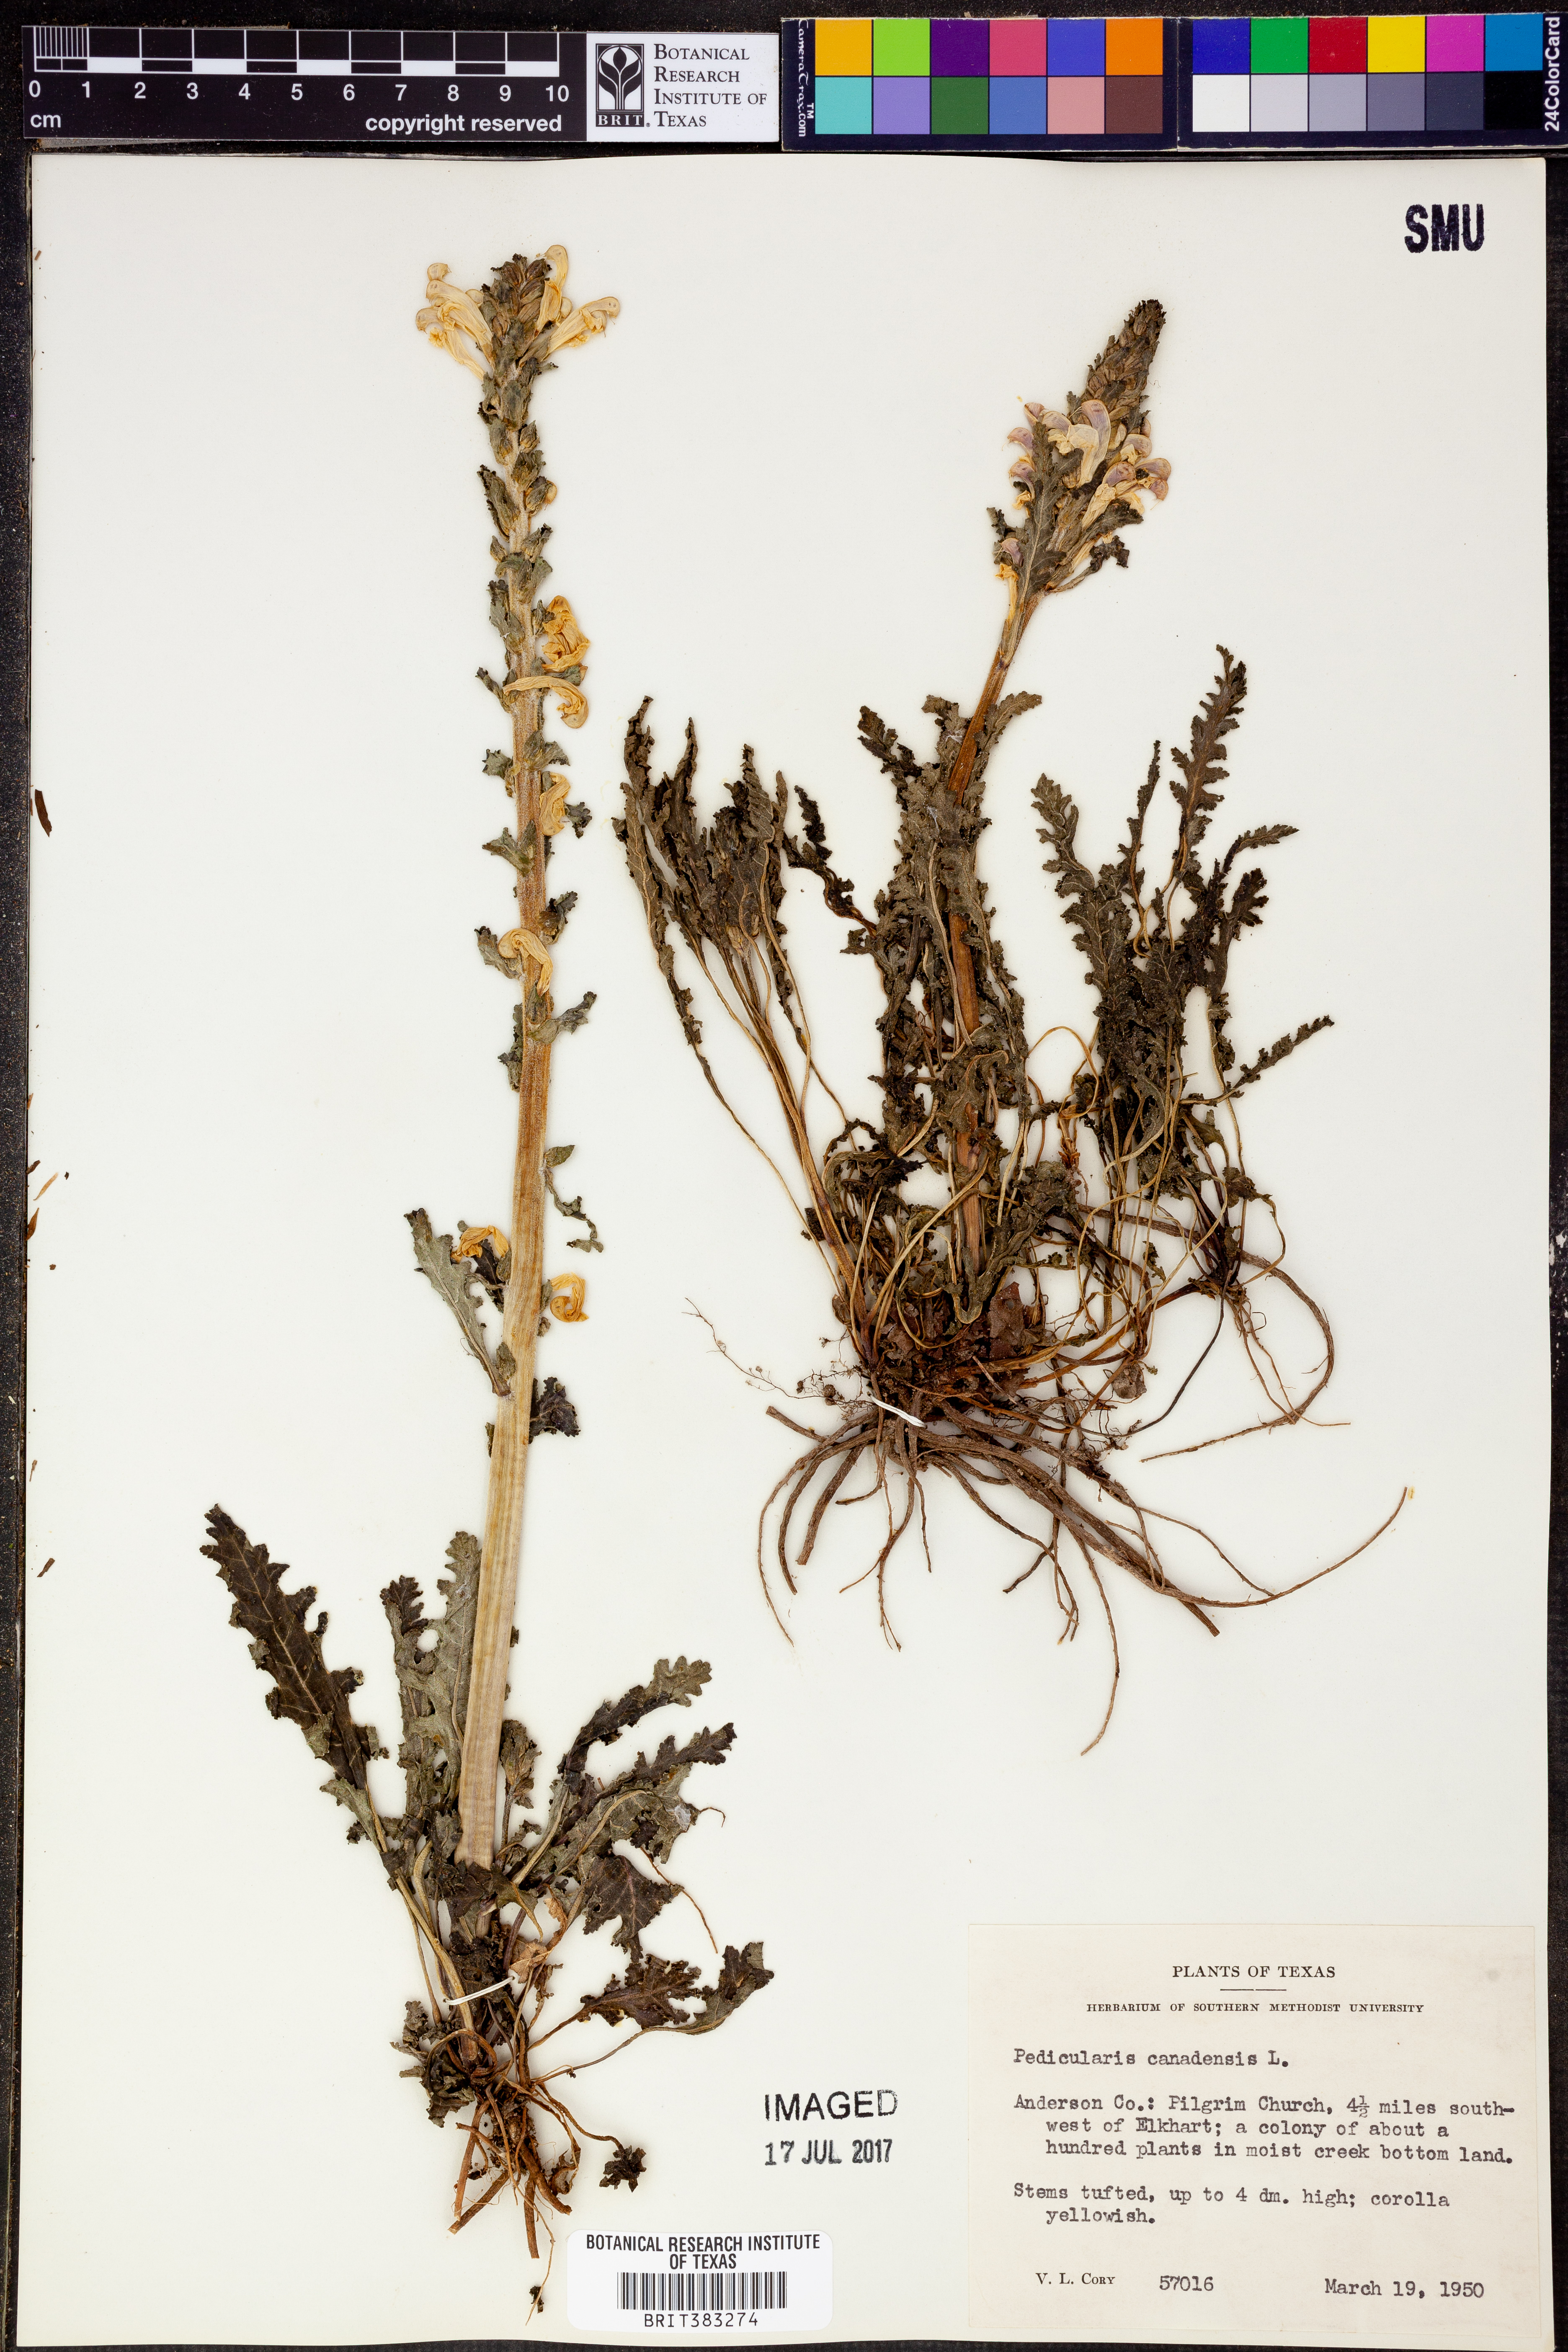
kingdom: Plantae
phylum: Tracheophyta
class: Magnoliopsida
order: Lamiales
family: Orobanchaceae
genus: Pedicularis
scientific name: Pedicularis canadensis
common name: Early lousewort
